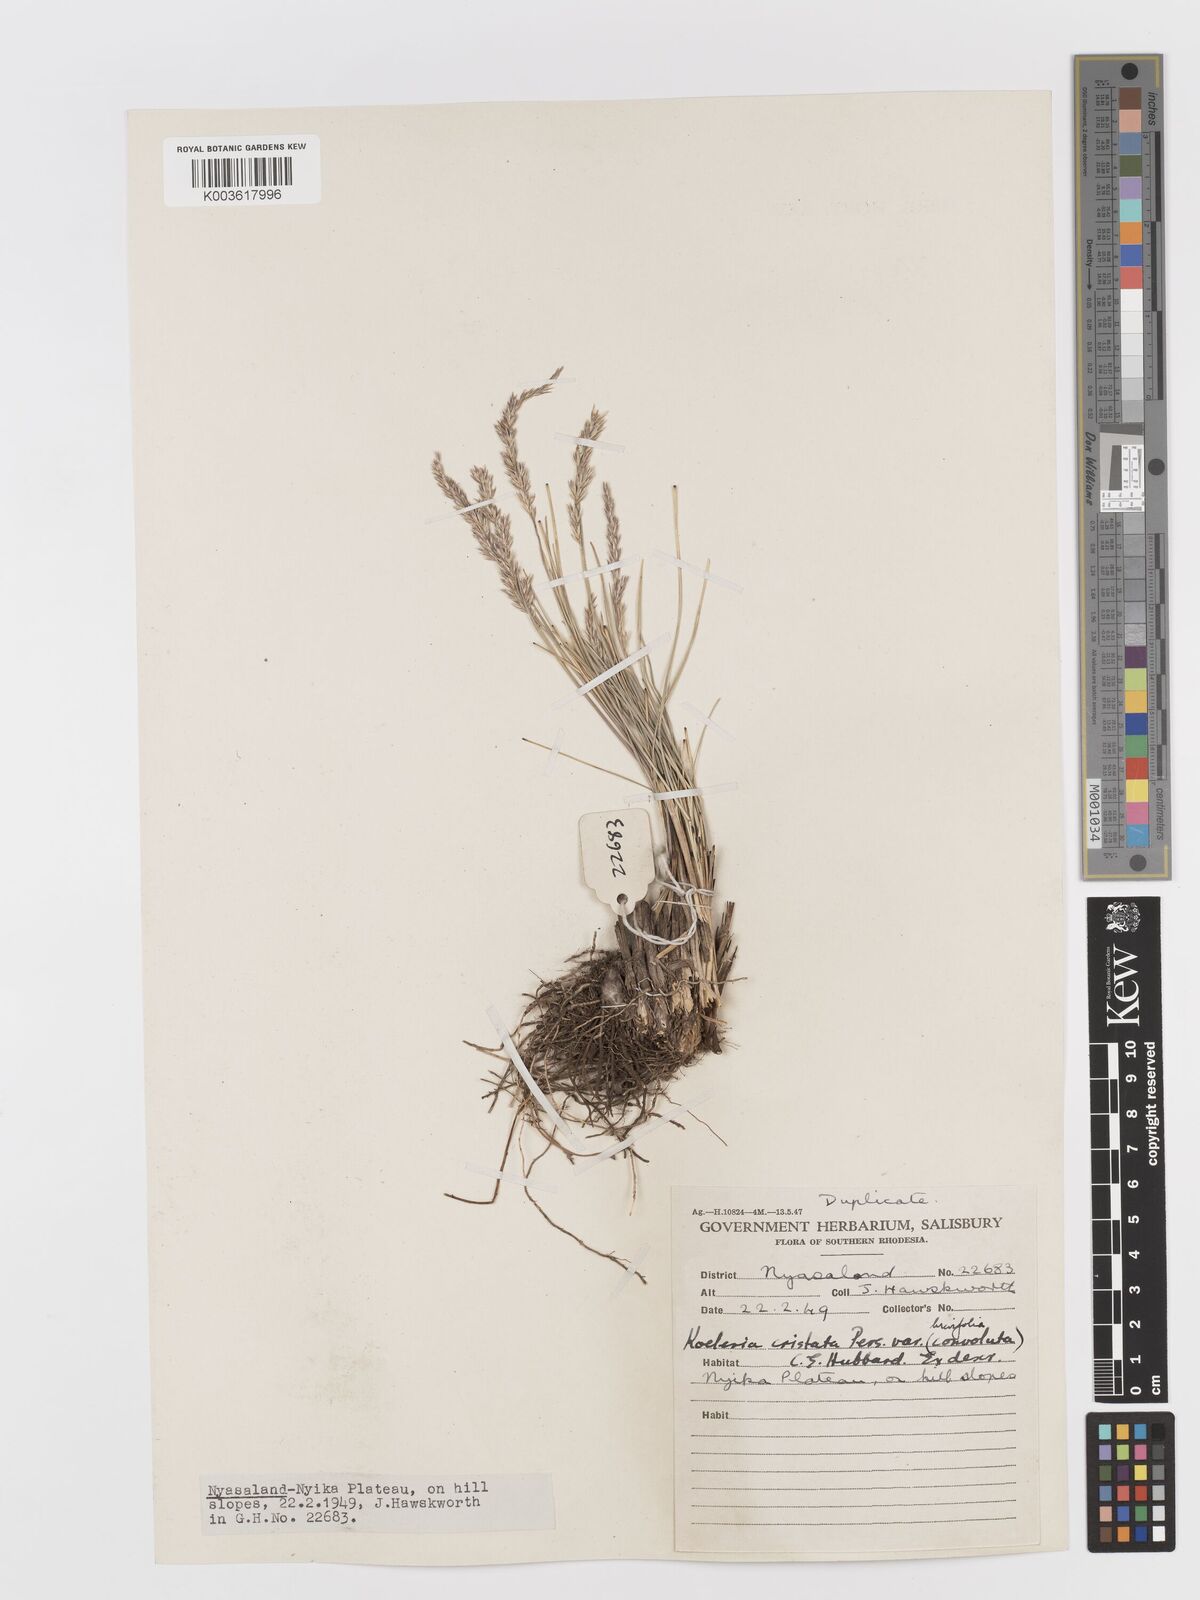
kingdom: Plantae
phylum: Tracheophyta
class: Liliopsida
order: Poales
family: Poaceae
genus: Koeleria
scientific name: Koeleria capensis
